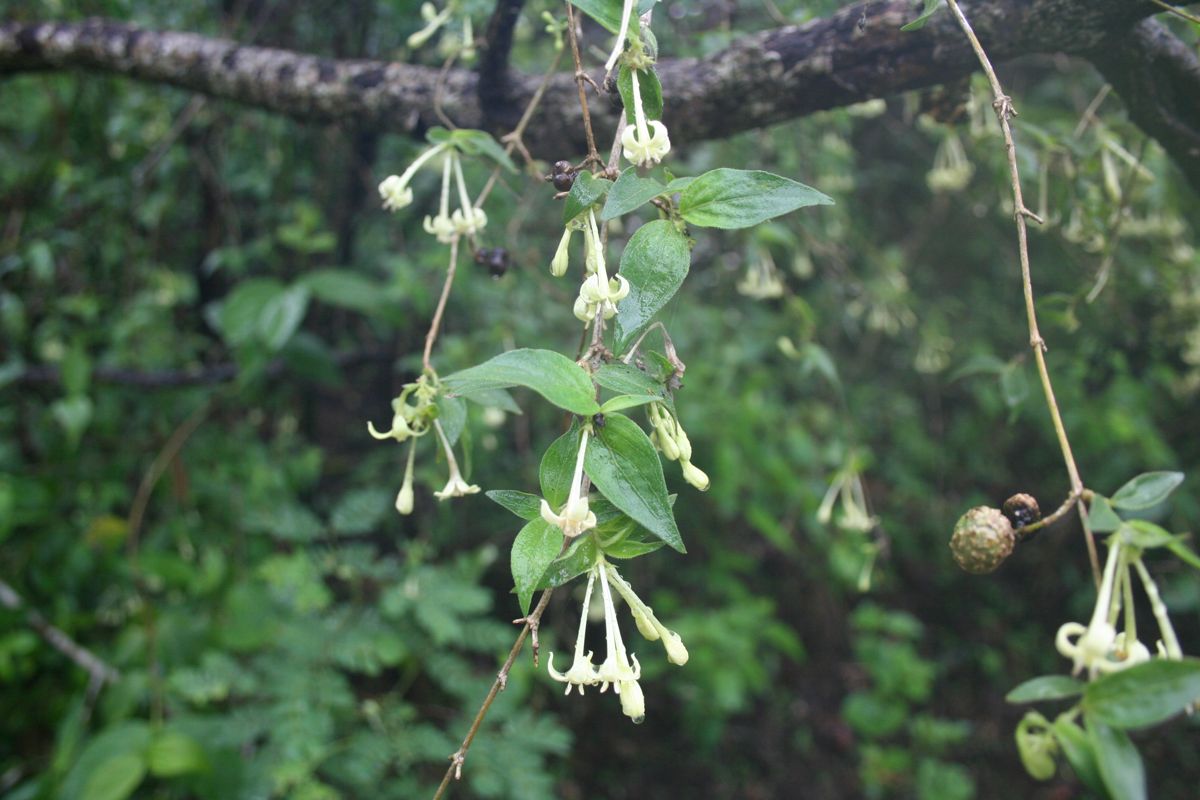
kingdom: Plantae
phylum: Tracheophyta
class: Magnoliopsida
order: Gentianales
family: Rubiaceae
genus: Bouvardia
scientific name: Bouvardia multiflora
